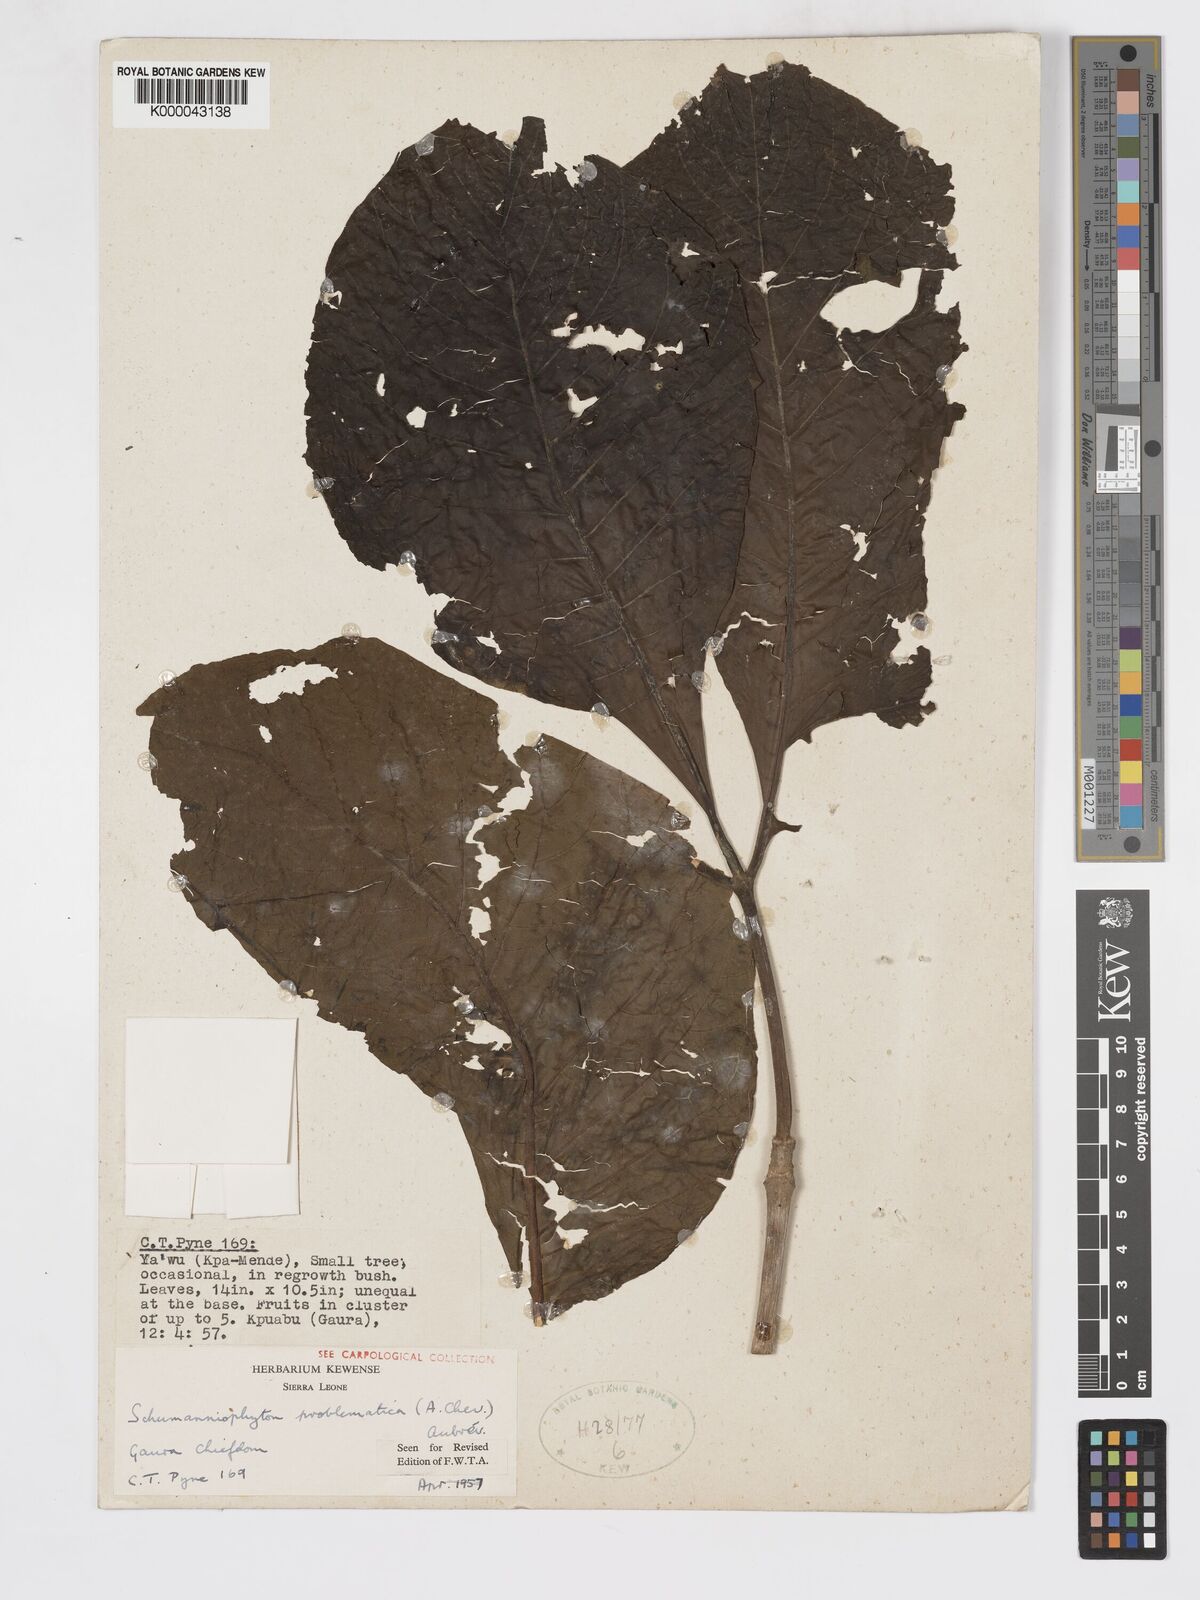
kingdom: Plantae
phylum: Tracheophyta
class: Magnoliopsida
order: Gentianales
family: Rubiaceae
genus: Schumanniophyton
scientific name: Schumanniophyton
